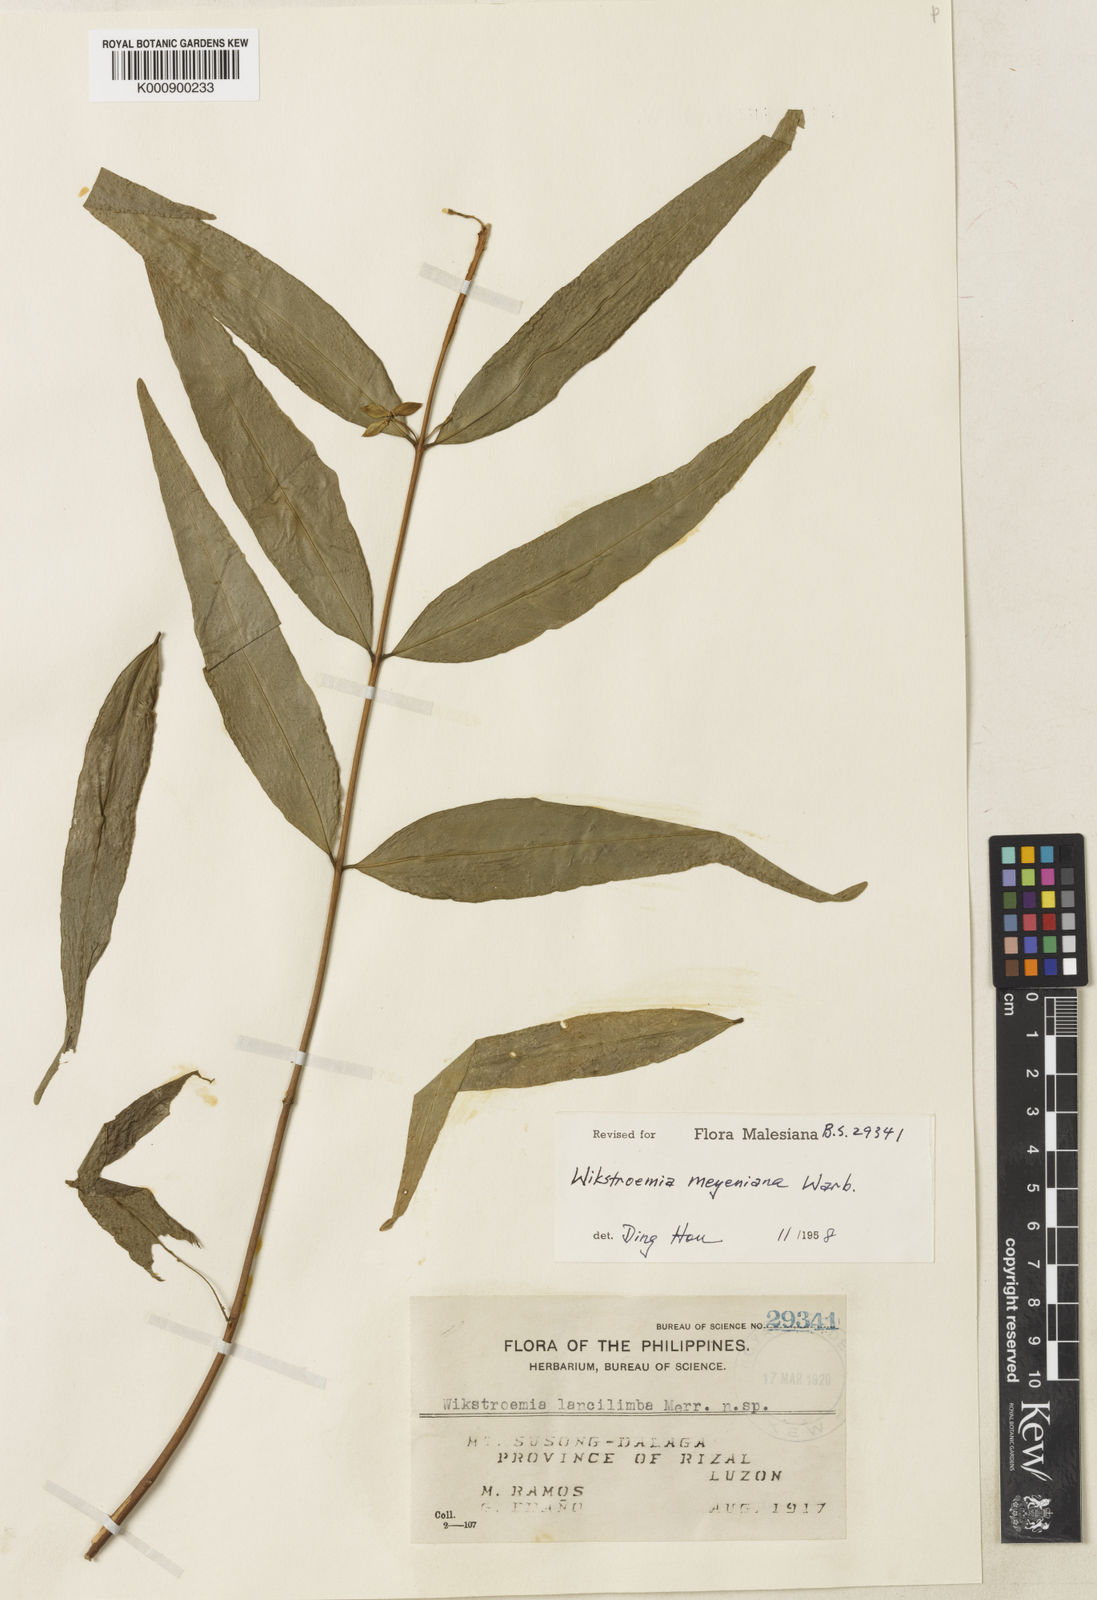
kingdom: Plantae
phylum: Tracheophyta
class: Magnoliopsida
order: Malvales
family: Thymelaeaceae
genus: Wikstroemia
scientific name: Wikstroemia meyeniana
